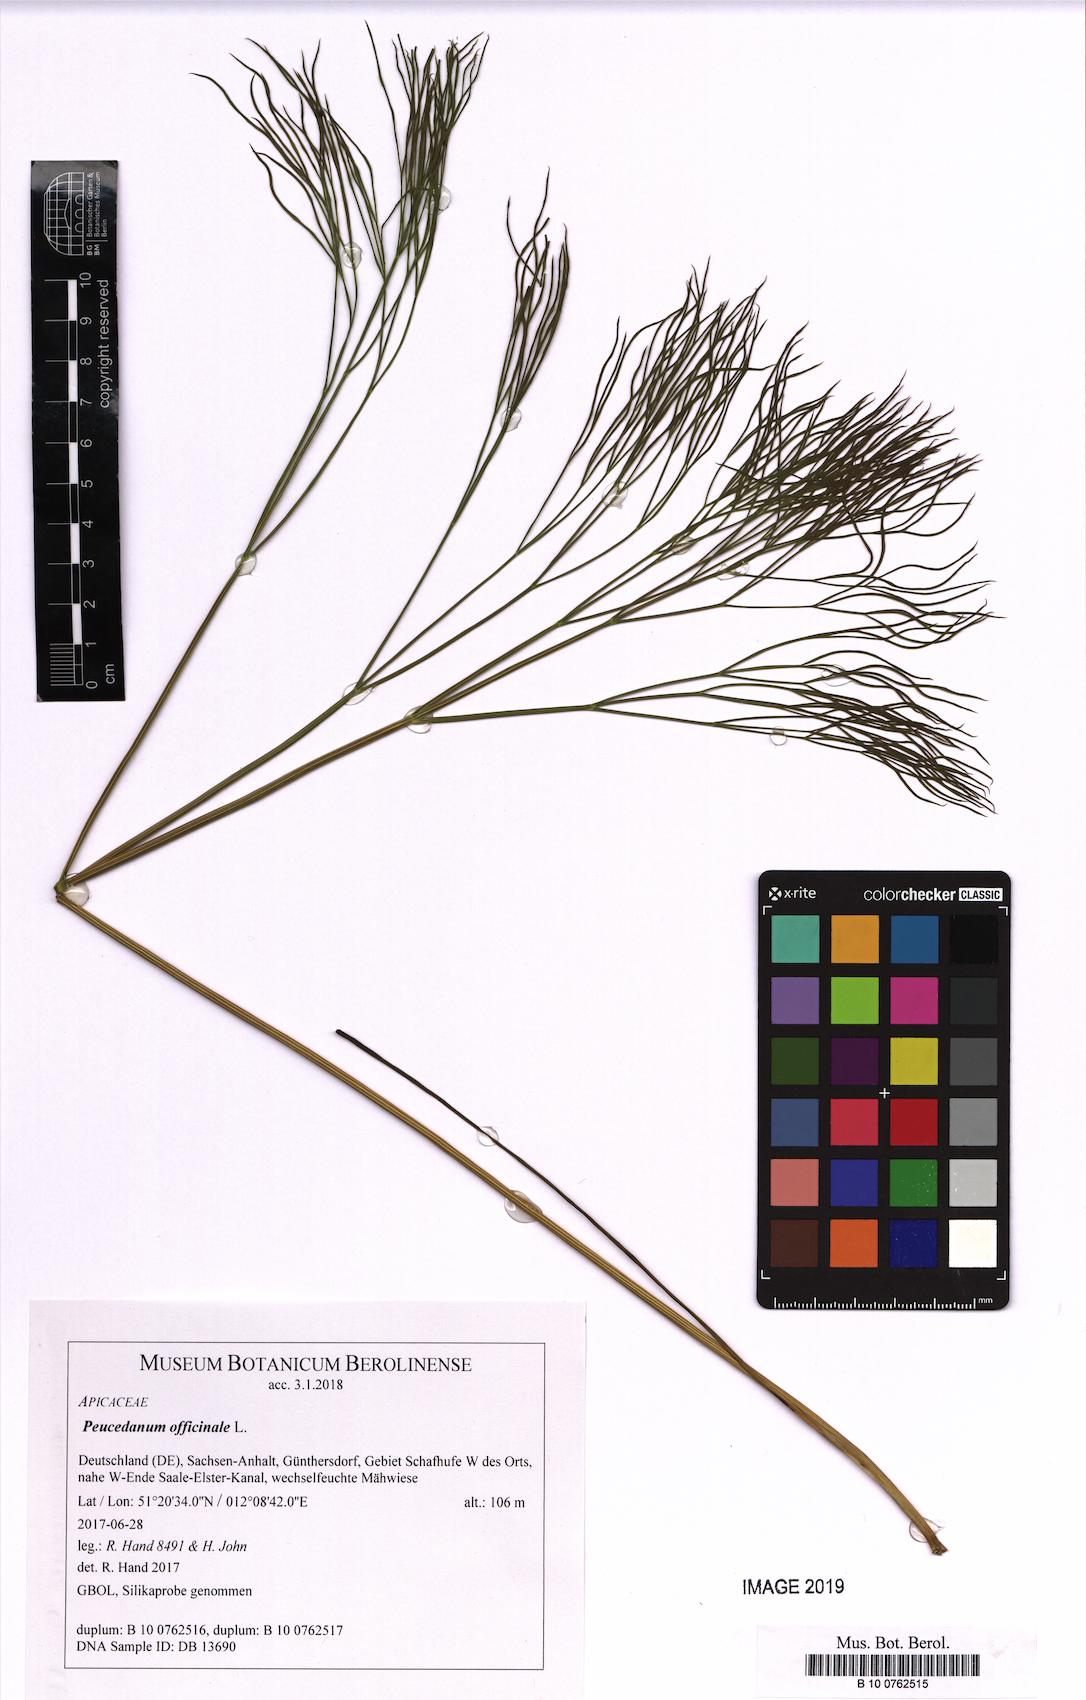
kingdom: Plantae
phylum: Tracheophyta
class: Magnoliopsida
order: Apiales
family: Apiaceae
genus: Peucedanum
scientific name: Peucedanum officinale
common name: Sulphurweed
